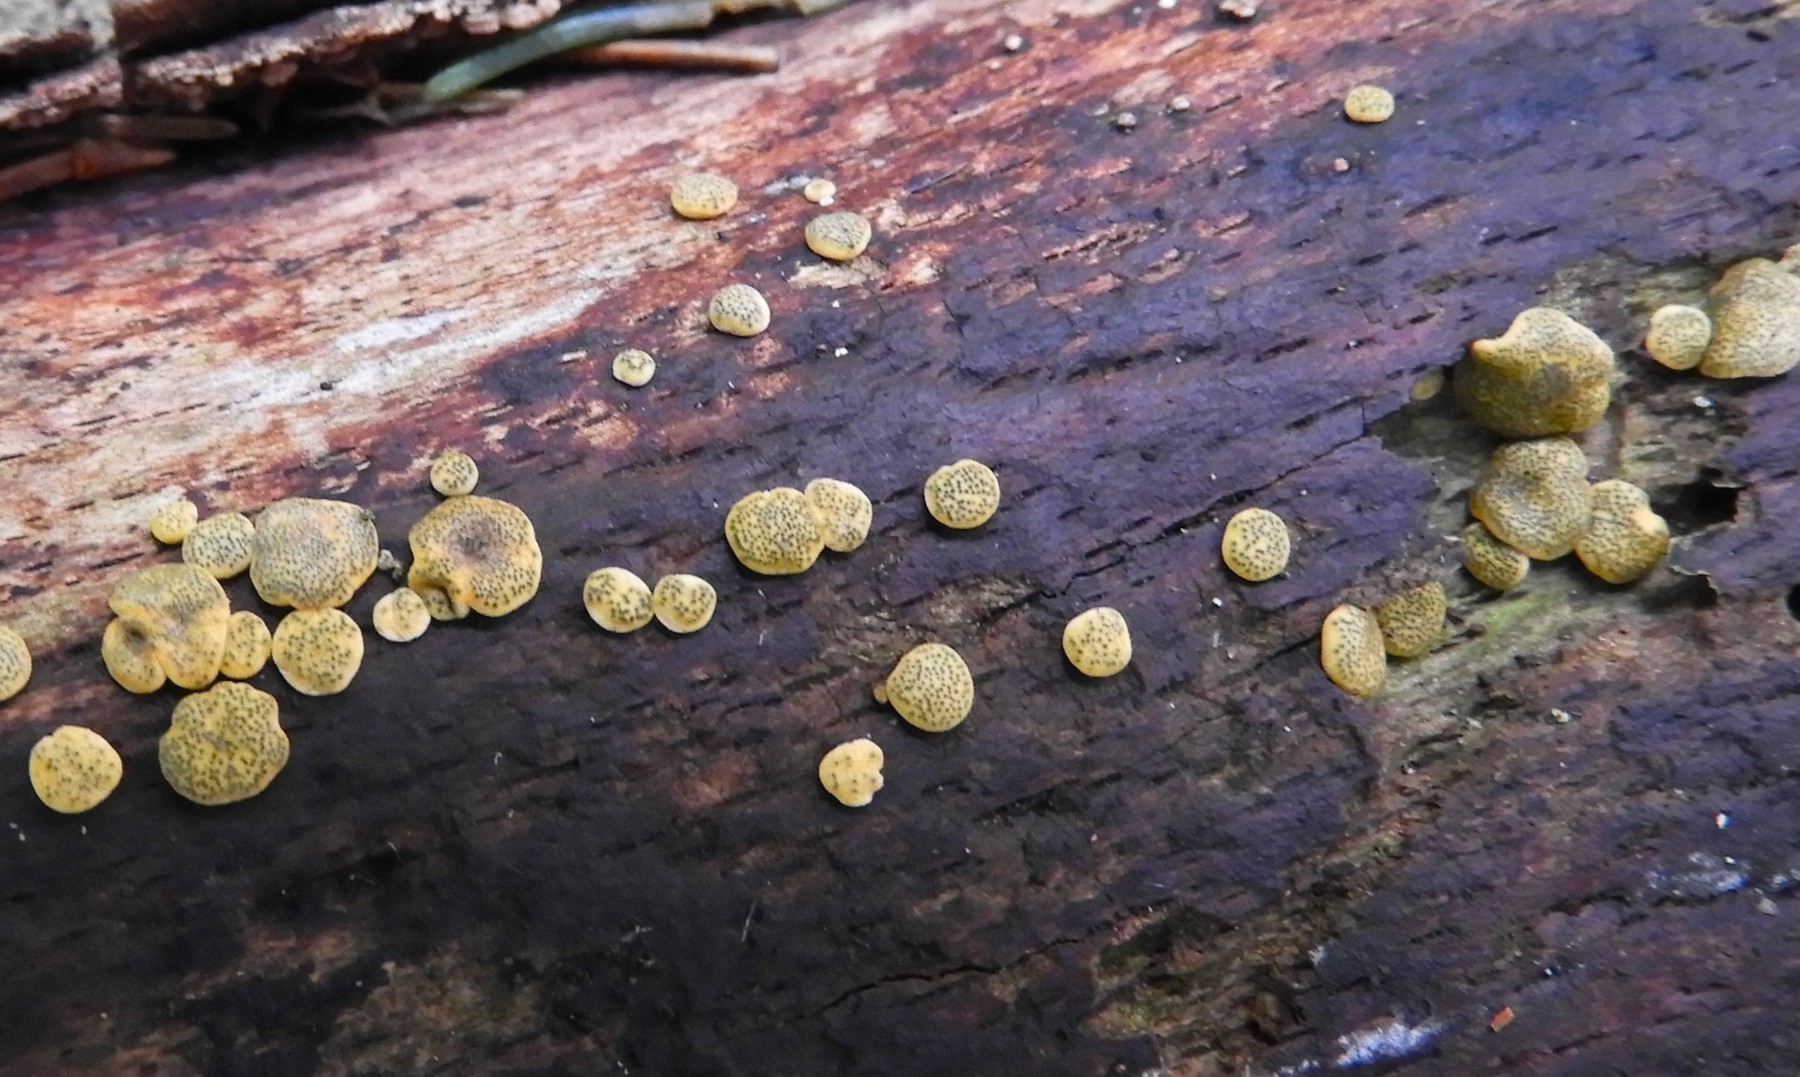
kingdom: Fungi
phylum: Ascomycota
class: Sordariomycetes
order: Hypocreales
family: Hypocreaceae
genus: Trichoderma
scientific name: Trichoderma aureoviride
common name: æggegul kødkerne
